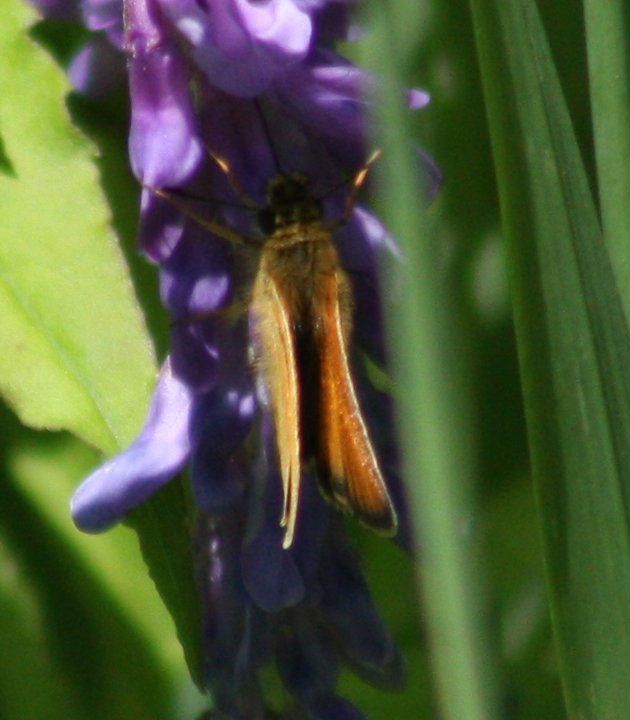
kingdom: Animalia
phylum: Arthropoda
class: Insecta
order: Lepidoptera
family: Hesperiidae
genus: Thymelicus
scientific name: Thymelicus lineola
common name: European Skipper
